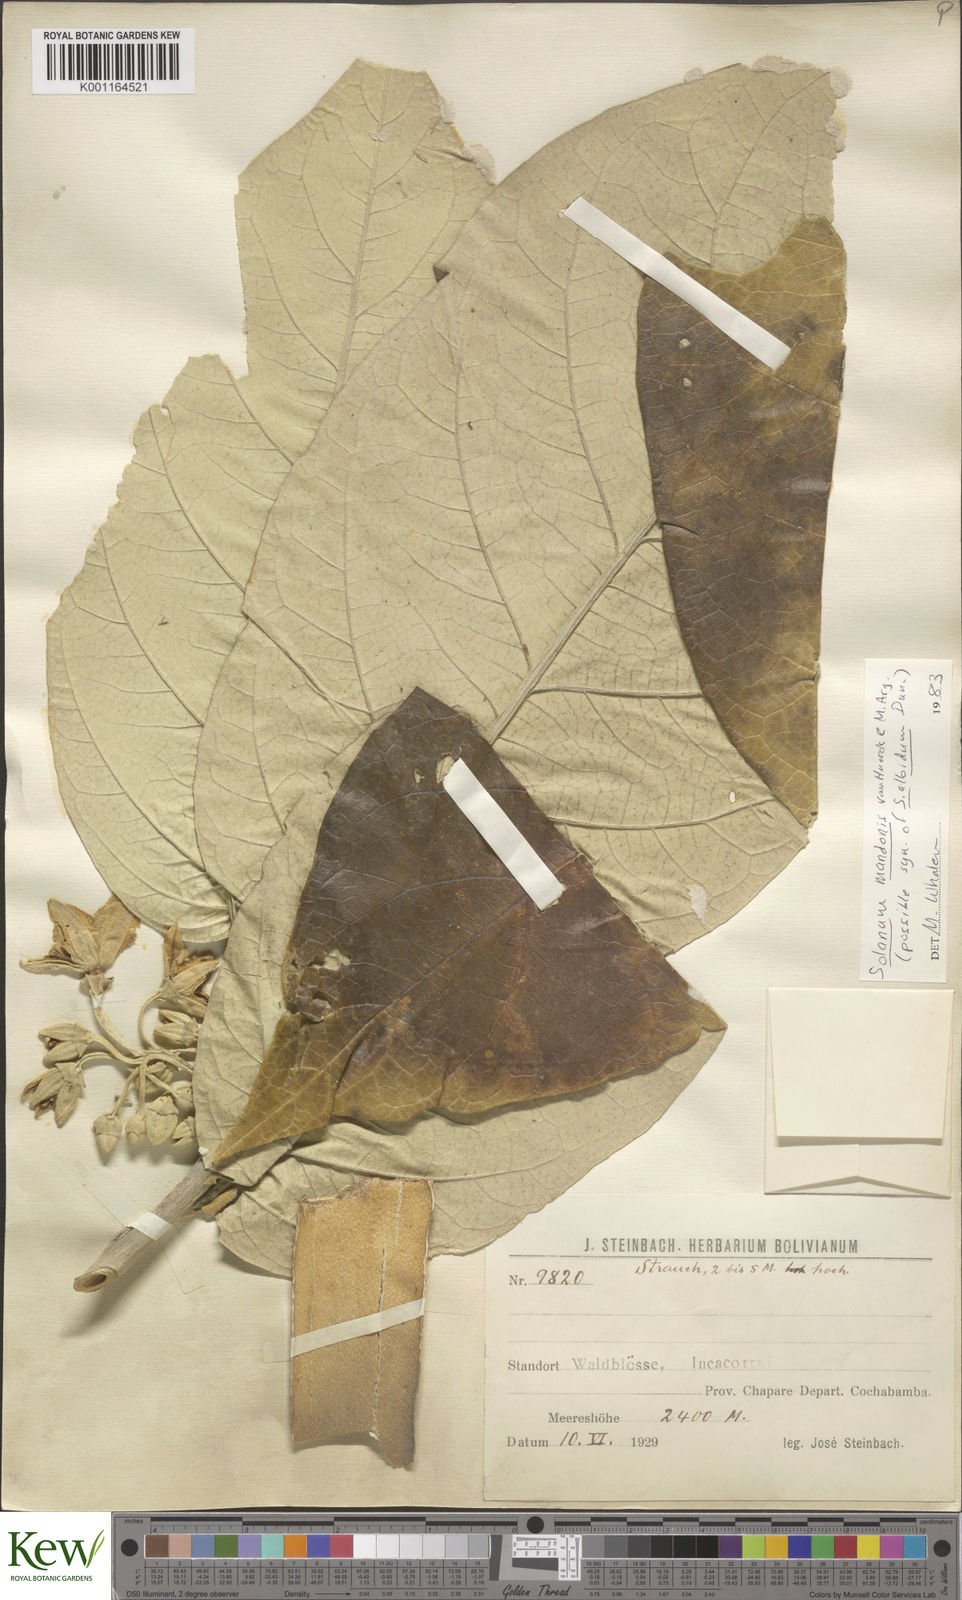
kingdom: Plantae
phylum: Tracheophyta
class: Magnoliopsida
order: Solanales
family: Solanaceae
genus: Solanum
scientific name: Solanum albidum
